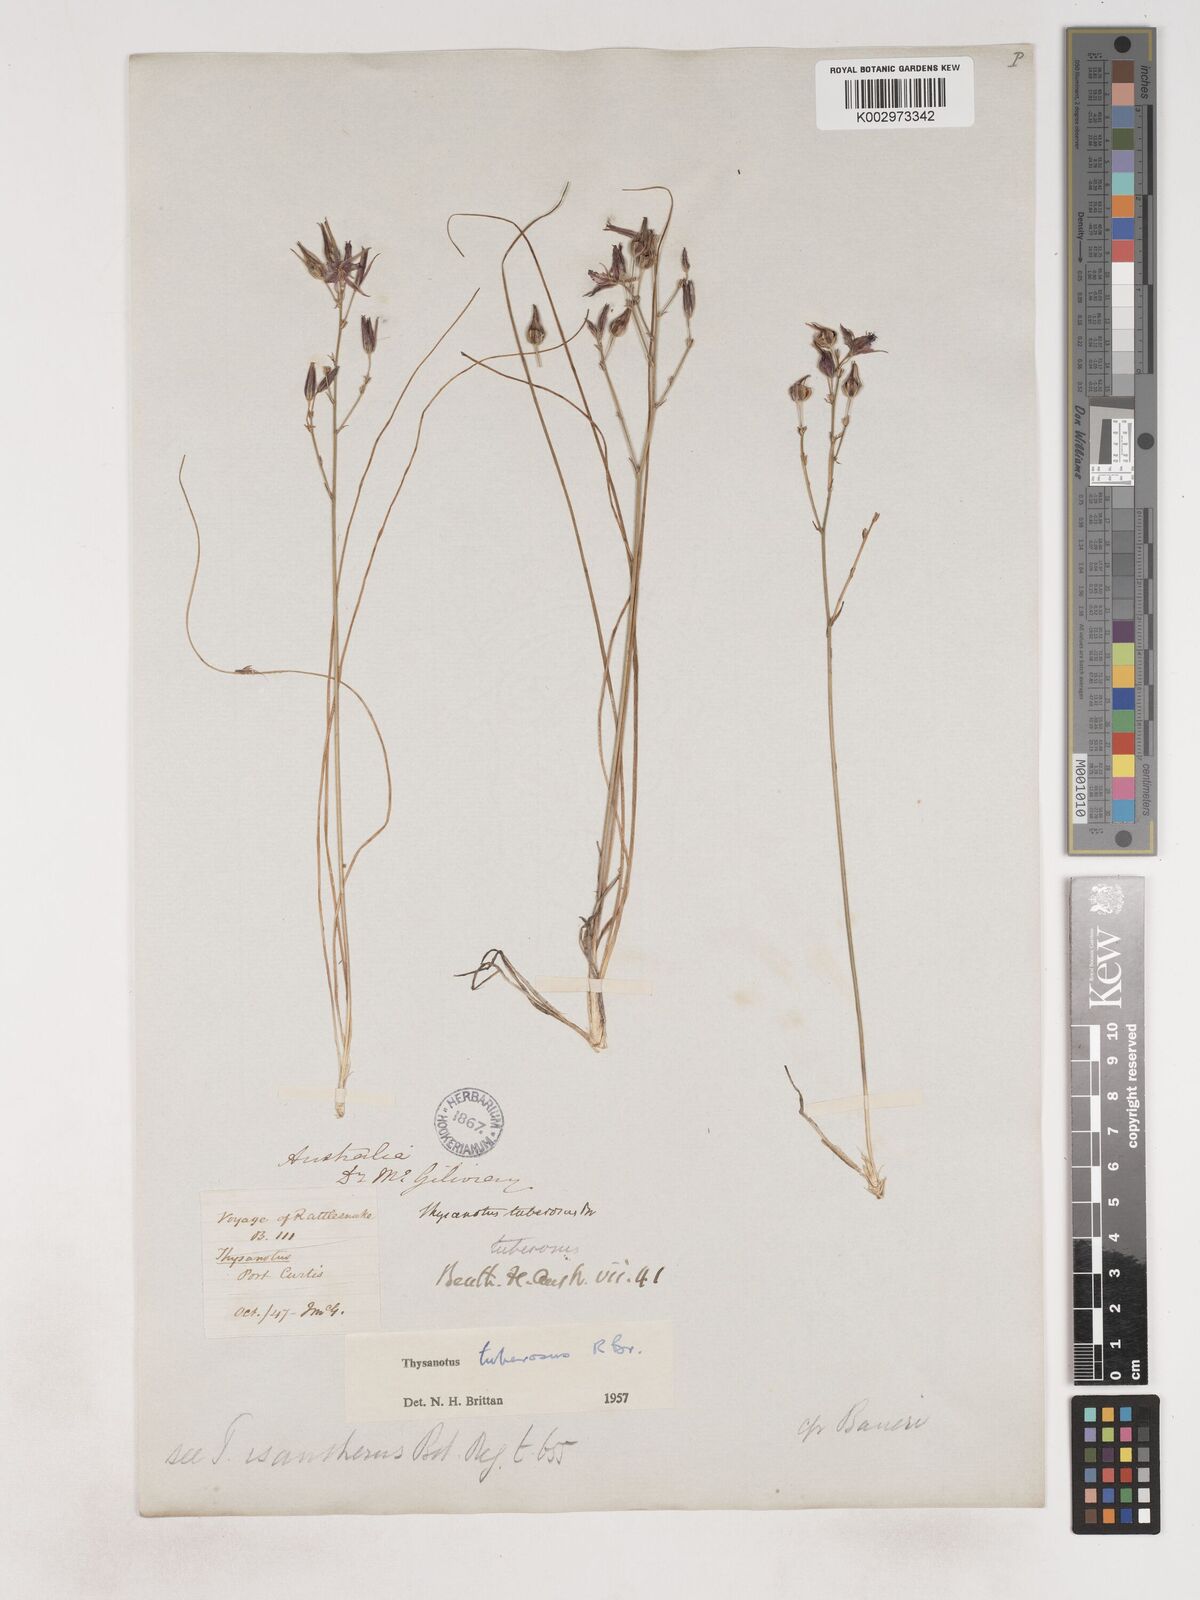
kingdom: Plantae
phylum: Tracheophyta
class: Liliopsida
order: Asparagales
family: Asparagaceae
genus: Thysanotus
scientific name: Thysanotus tuberosus
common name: Common fringed-lily
